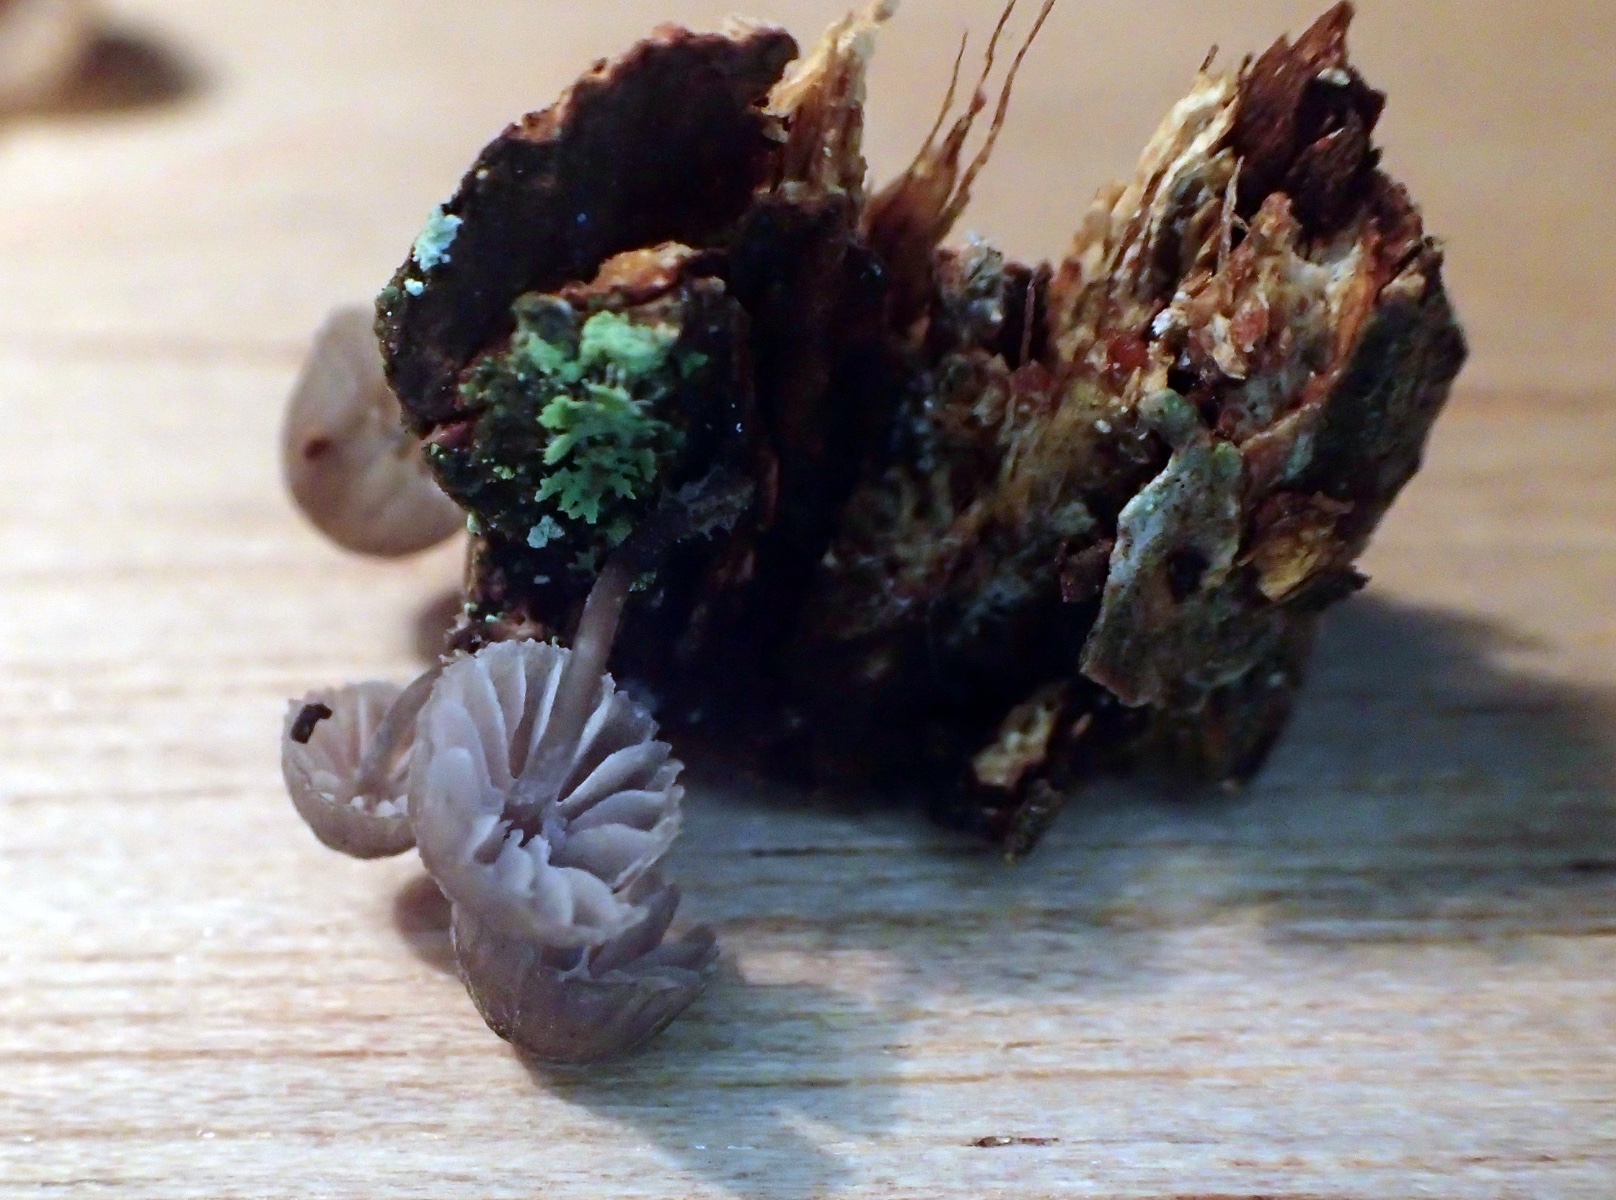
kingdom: Fungi
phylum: Basidiomycota
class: Agaricomycetes
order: Agaricales
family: Mycenaceae
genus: Mycena
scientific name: Mycena pseudocorticola
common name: gråblå bark-huesvamp
